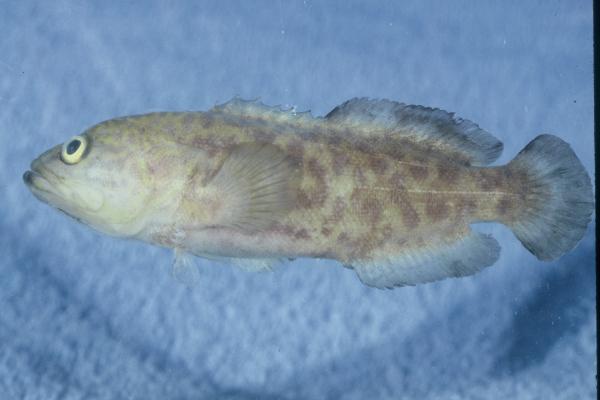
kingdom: Animalia
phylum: Chordata
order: Perciformes
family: Serranidae
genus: Aporops
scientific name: Aporops bilinearis
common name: Poreless podge
